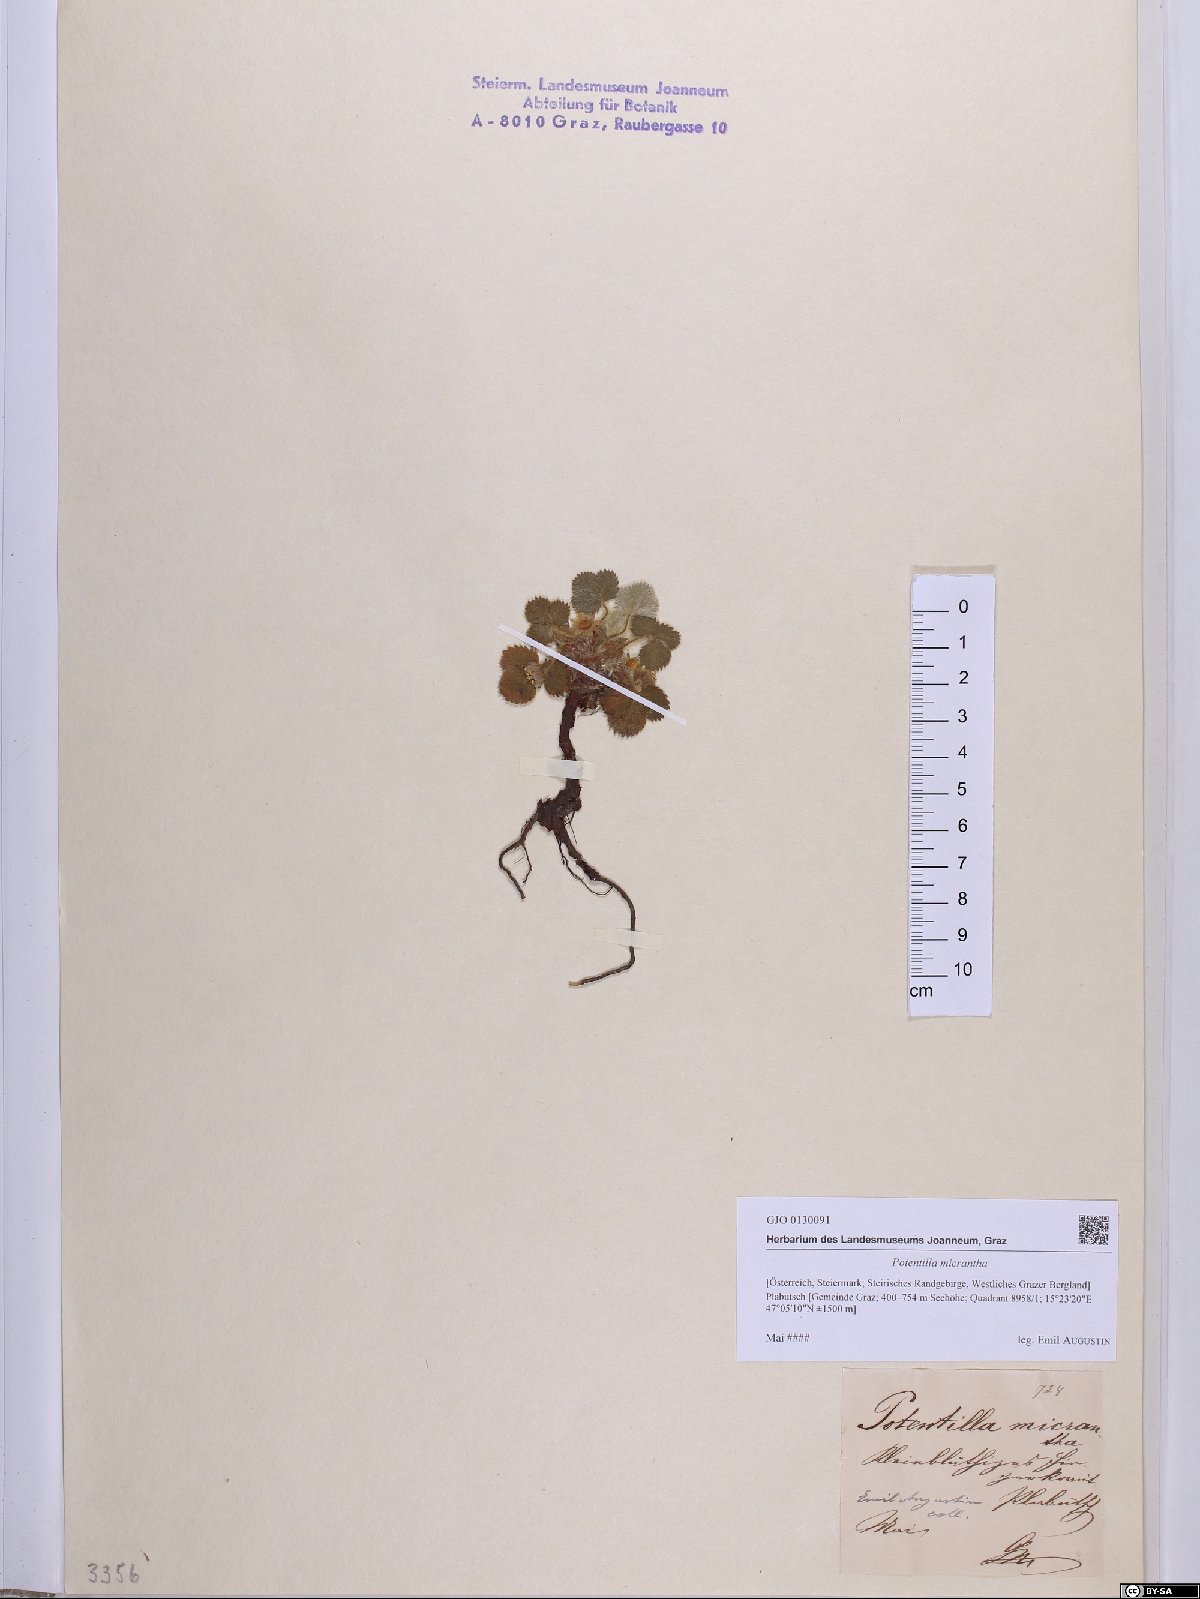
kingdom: Plantae
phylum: Tracheophyta
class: Magnoliopsida
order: Rosales
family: Rosaceae
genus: Potentilla
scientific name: Potentilla micrantha
